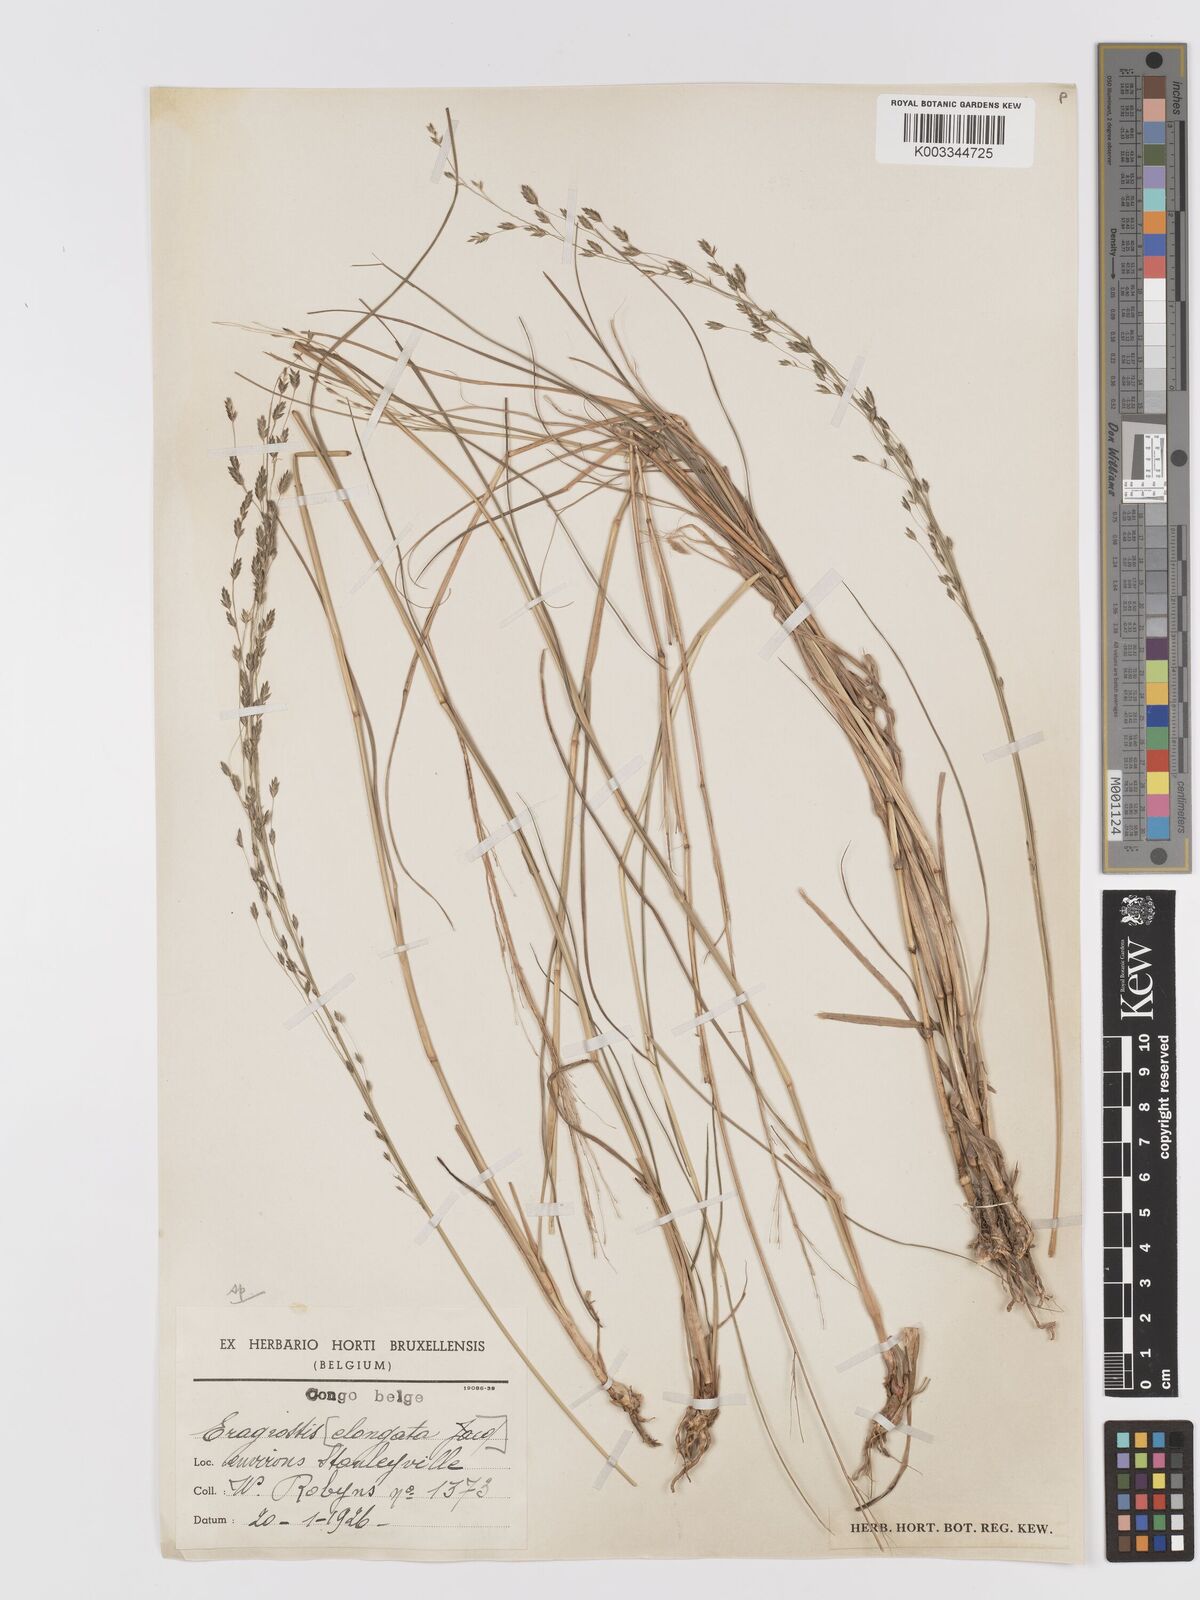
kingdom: Plantae
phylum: Tracheophyta
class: Liliopsida
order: Poales
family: Poaceae
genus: Eragrostis
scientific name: Eragrostis barteri
